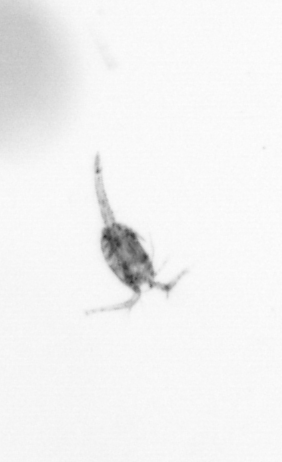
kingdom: Animalia
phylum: Arthropoda
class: Copepoda
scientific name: Copepoda
